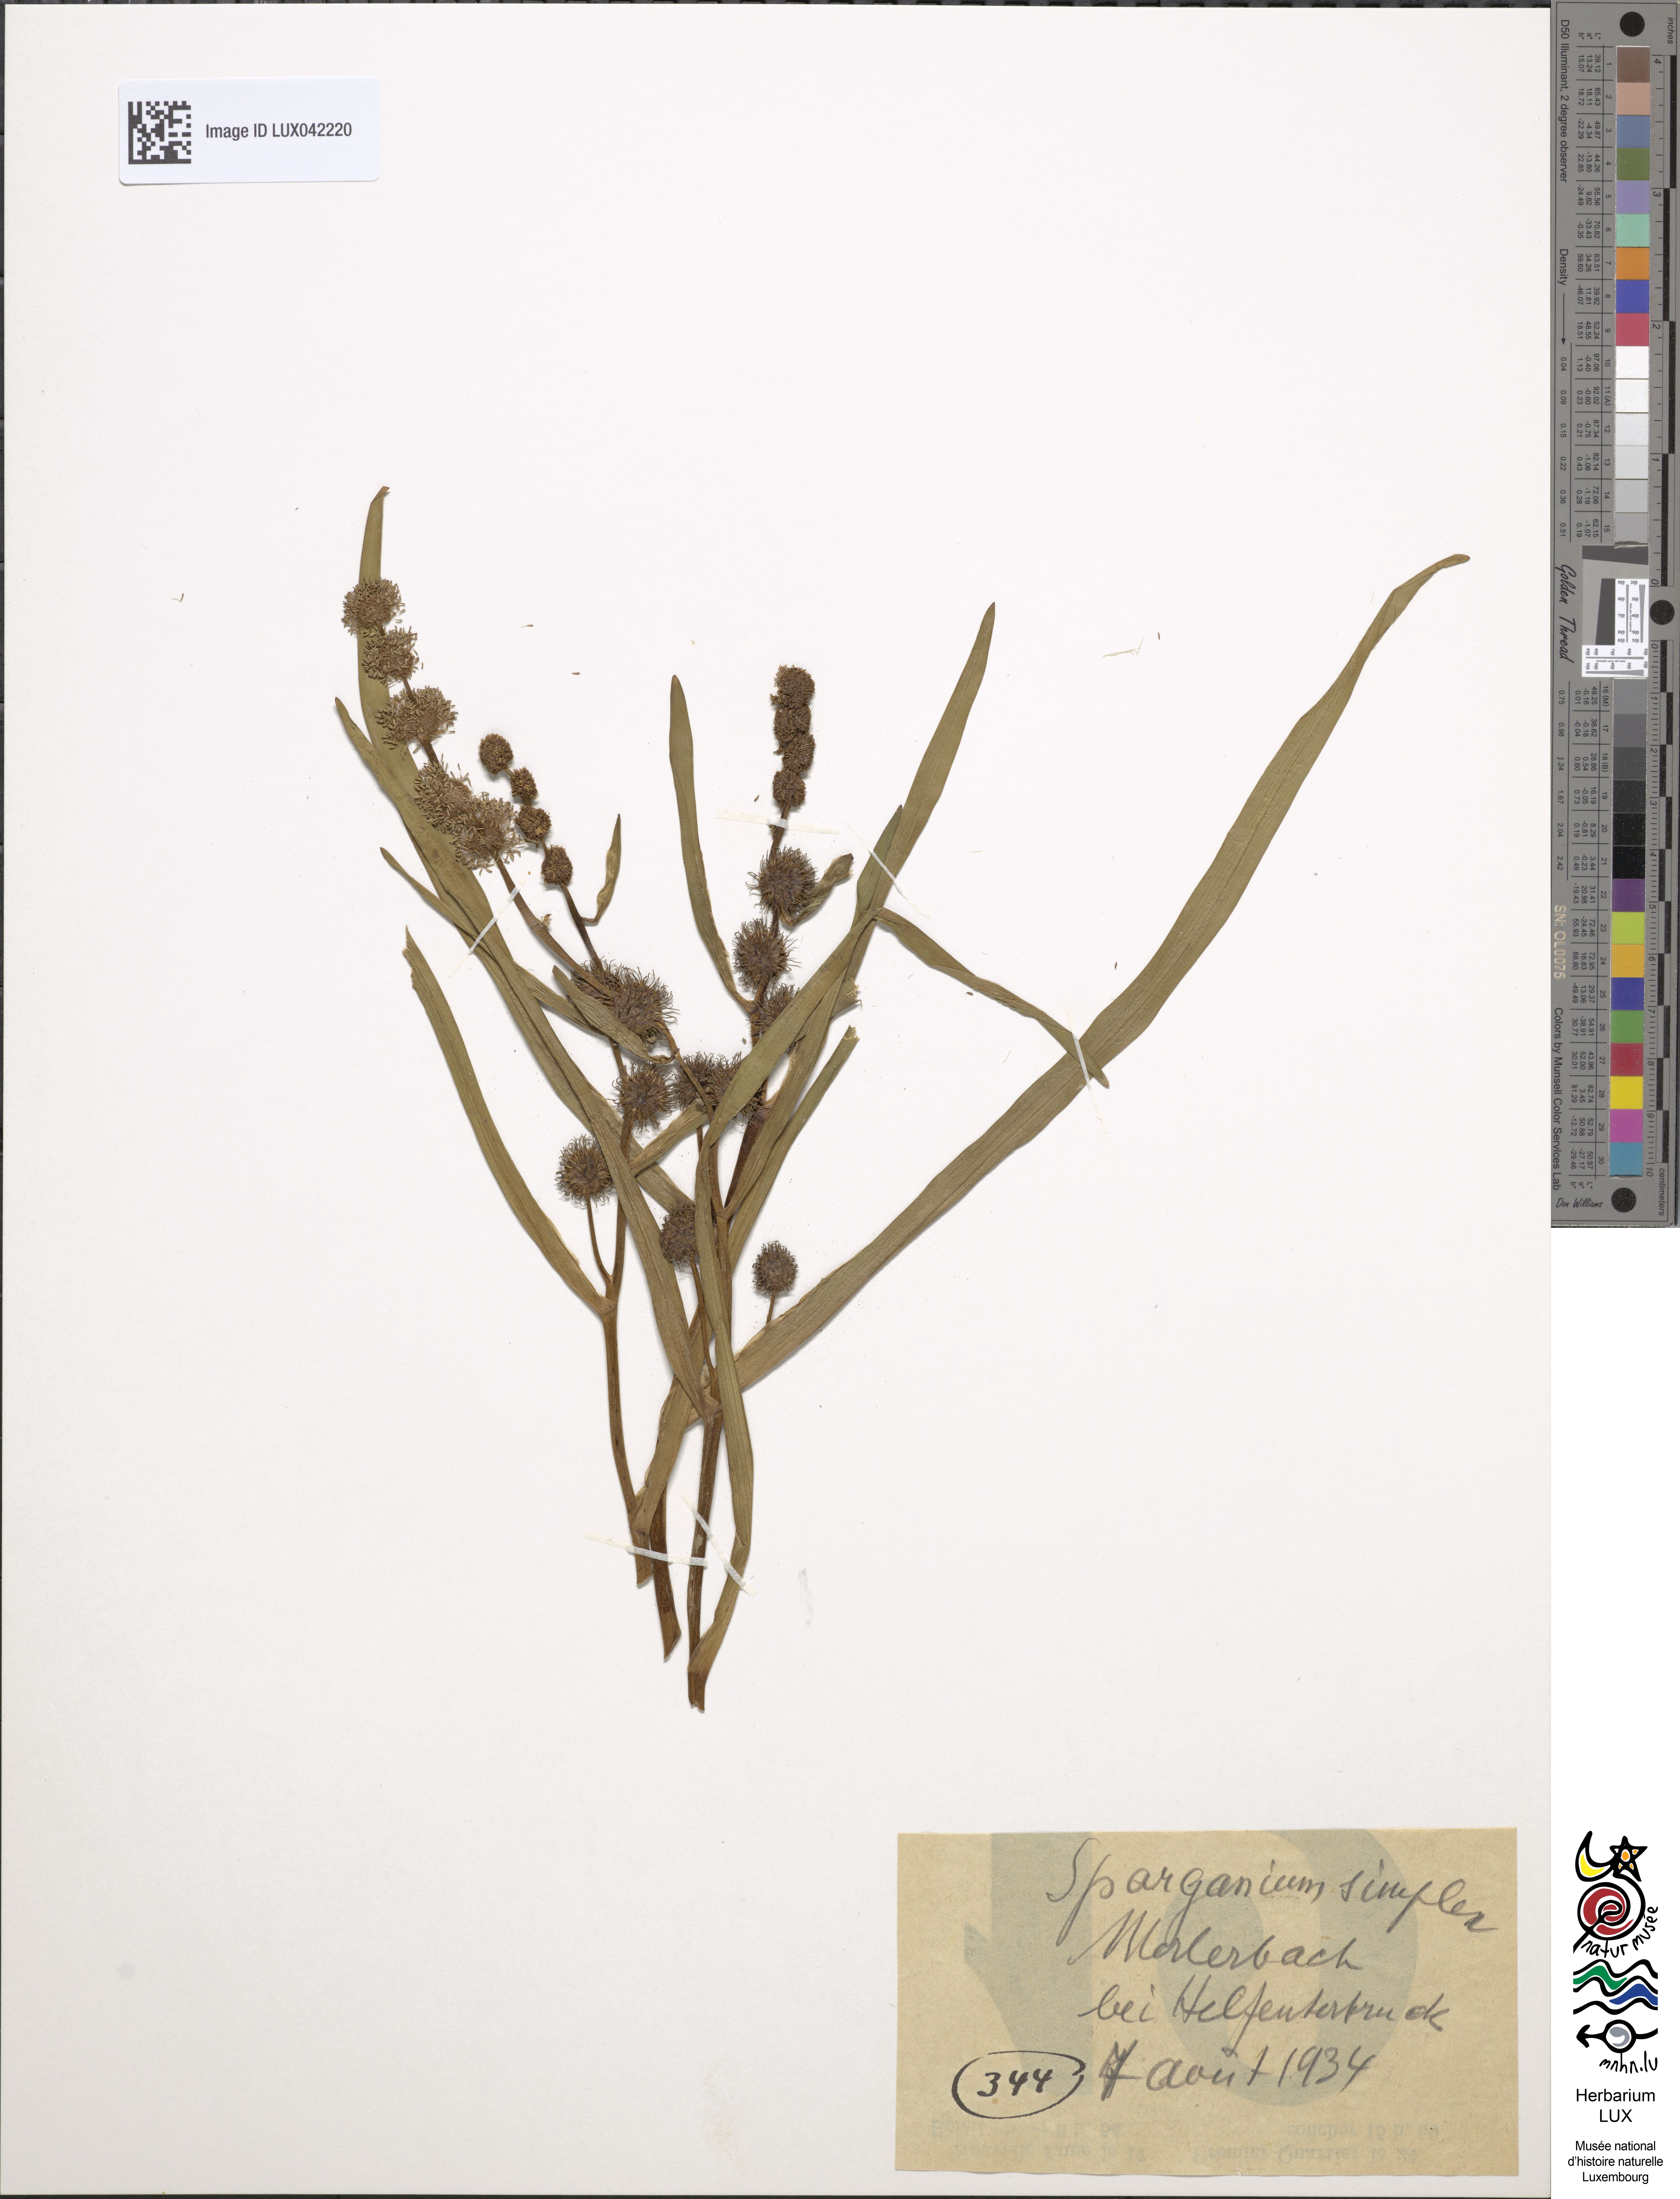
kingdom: Plantae
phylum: Tracheophyta
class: Liliopsida
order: Poales
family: Typhaceae
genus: Sparganium
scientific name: Sparganium emersum
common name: Unbranched bur-reed
